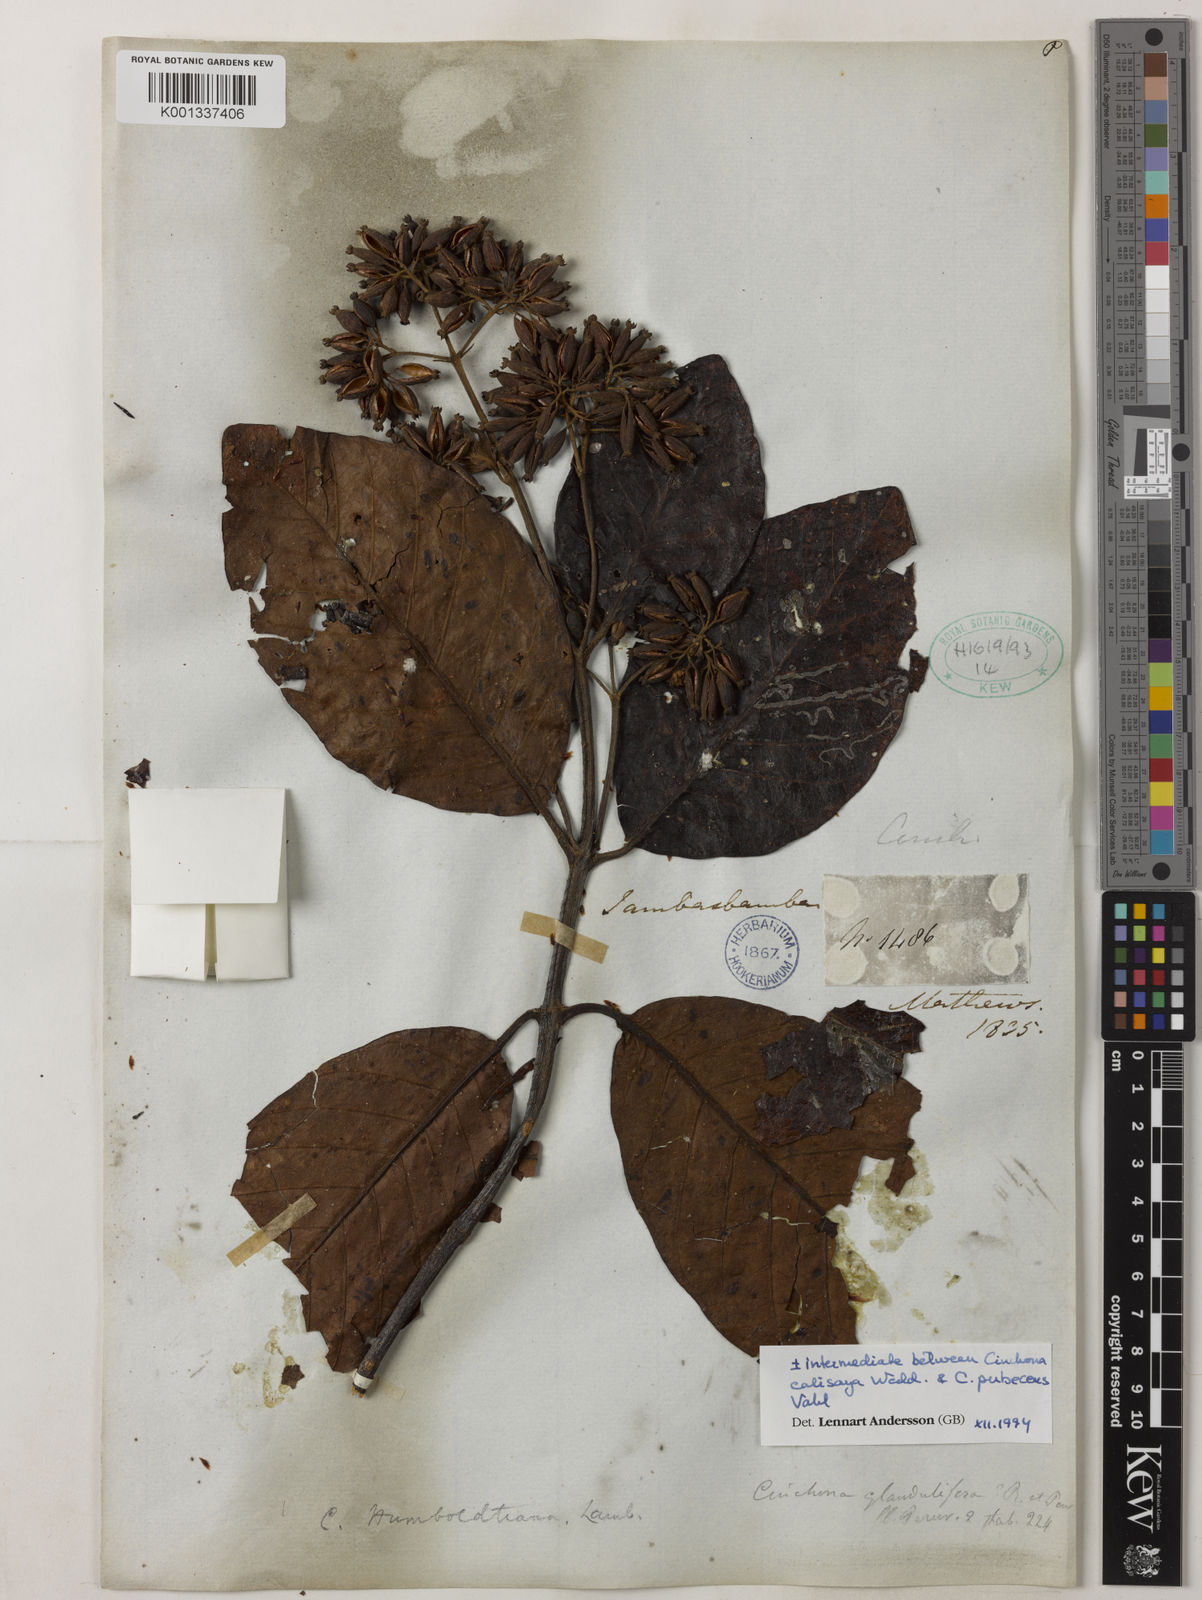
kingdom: Plantae
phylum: Tracheophyta
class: Magnoliopsida
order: Gentianales
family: Rubiaceae
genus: Cinchona
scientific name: Cinchona calisaya
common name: Ledgerbark
